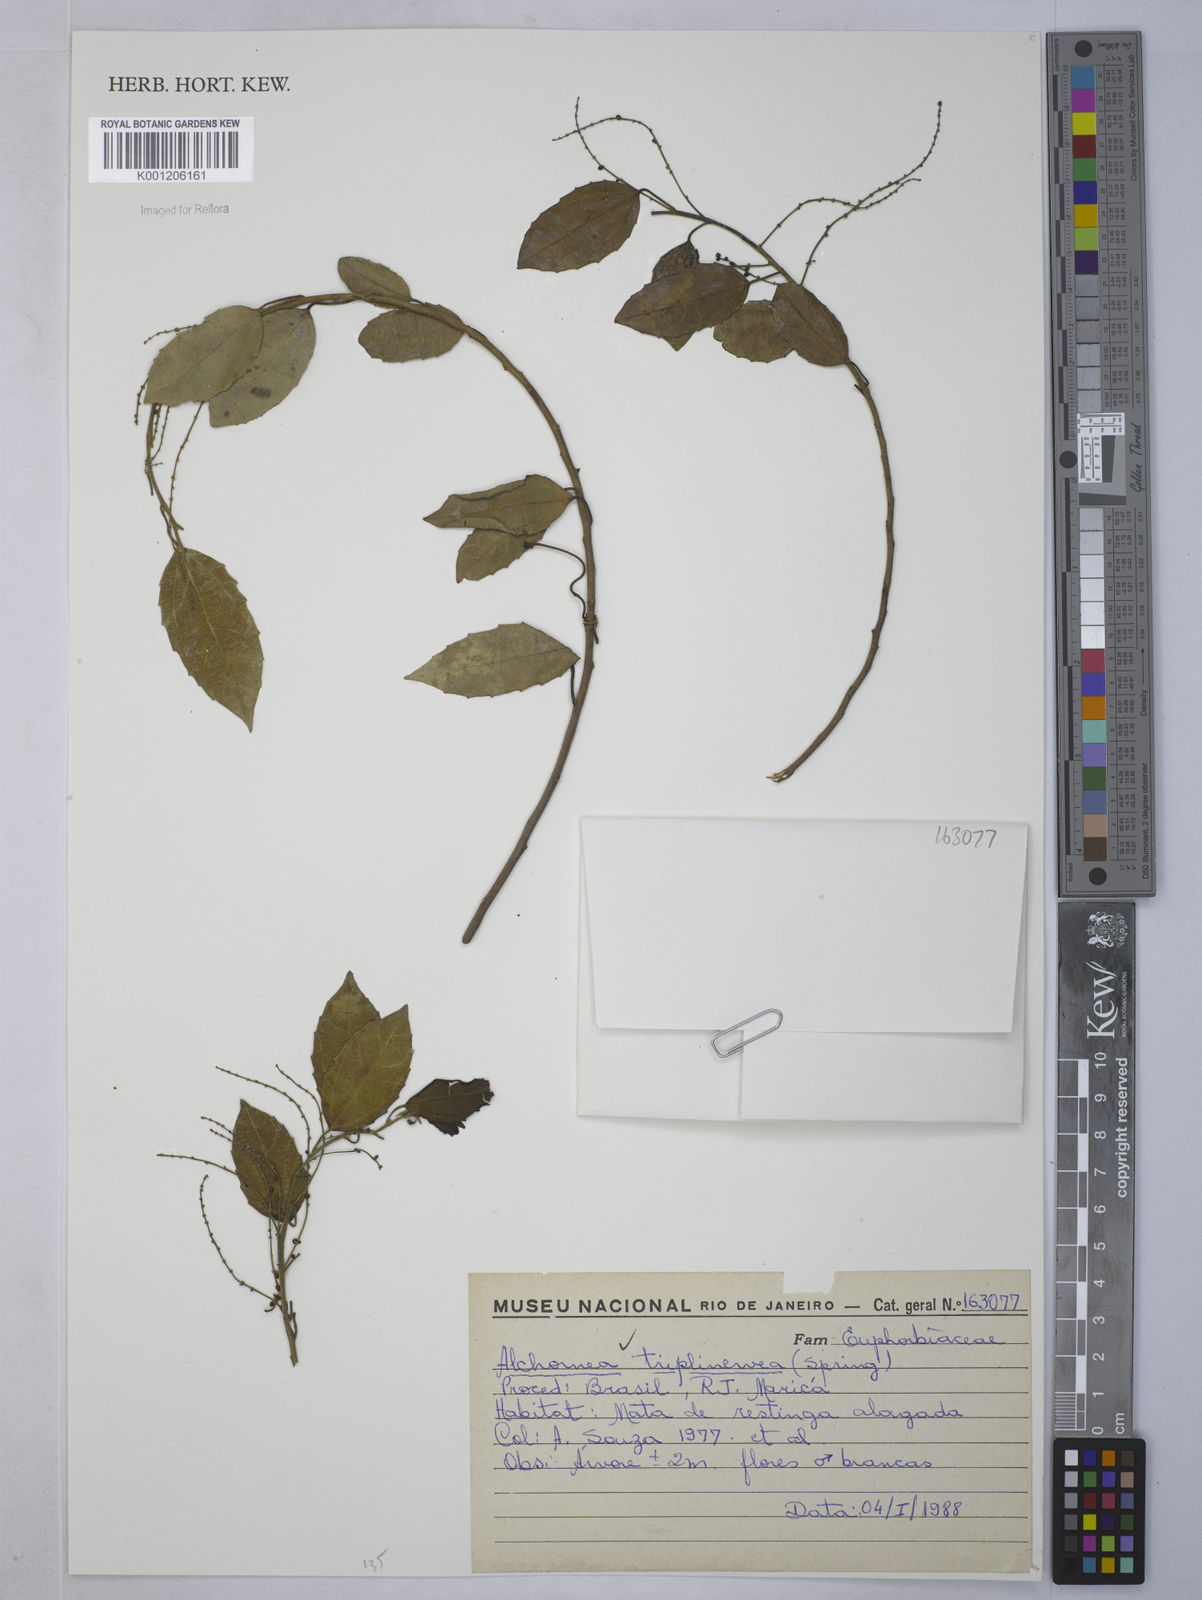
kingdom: Plantae
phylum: Tracheophyta
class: Magnoliopsida
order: Malpighiales
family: Euphorbiaceae
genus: Alchornea
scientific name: Alchornea
